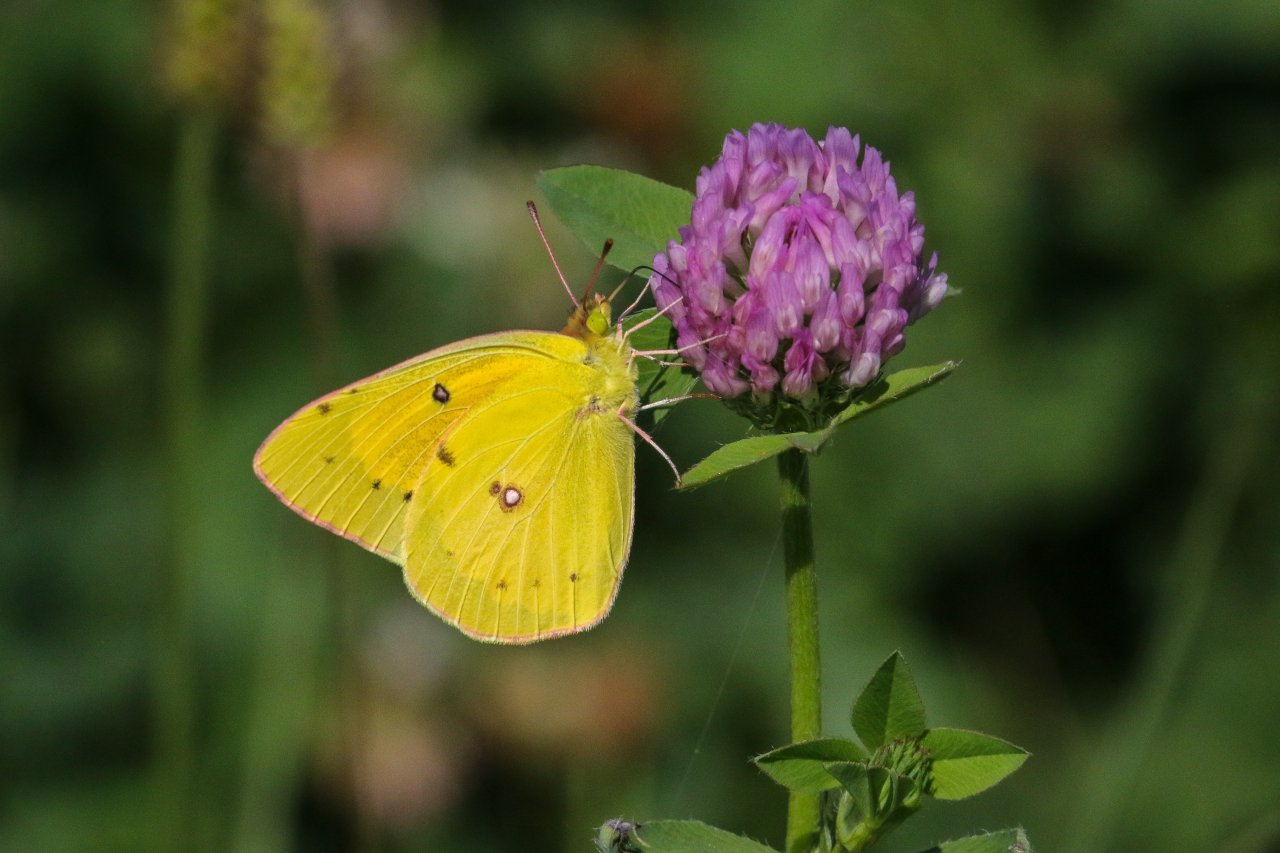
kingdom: Animalia
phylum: Arthropoda
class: Insecta
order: Lepidoptera
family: Pieridae
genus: Colias
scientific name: Colias eurytheme
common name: Orange Sulphur
